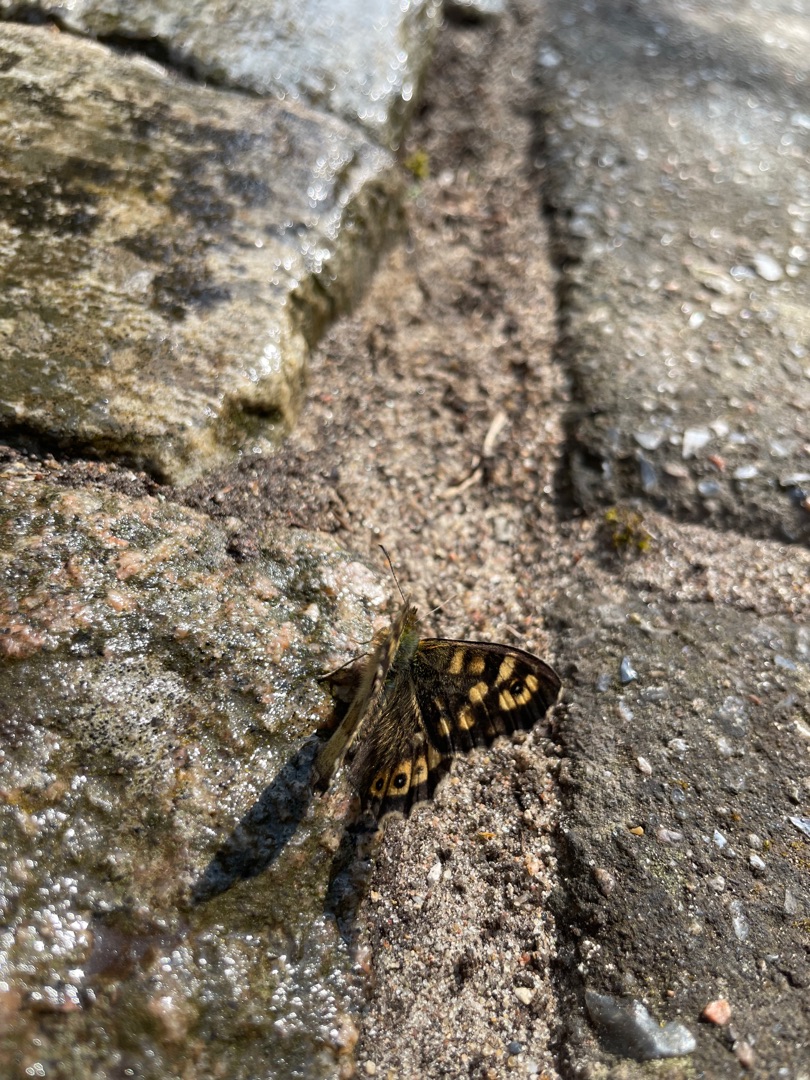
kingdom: Animalia
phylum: Arthropoda
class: Insecta
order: Lepidoptera
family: Nymphalidae
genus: Pararge
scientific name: Pararge aegeria
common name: Skovrandøje
